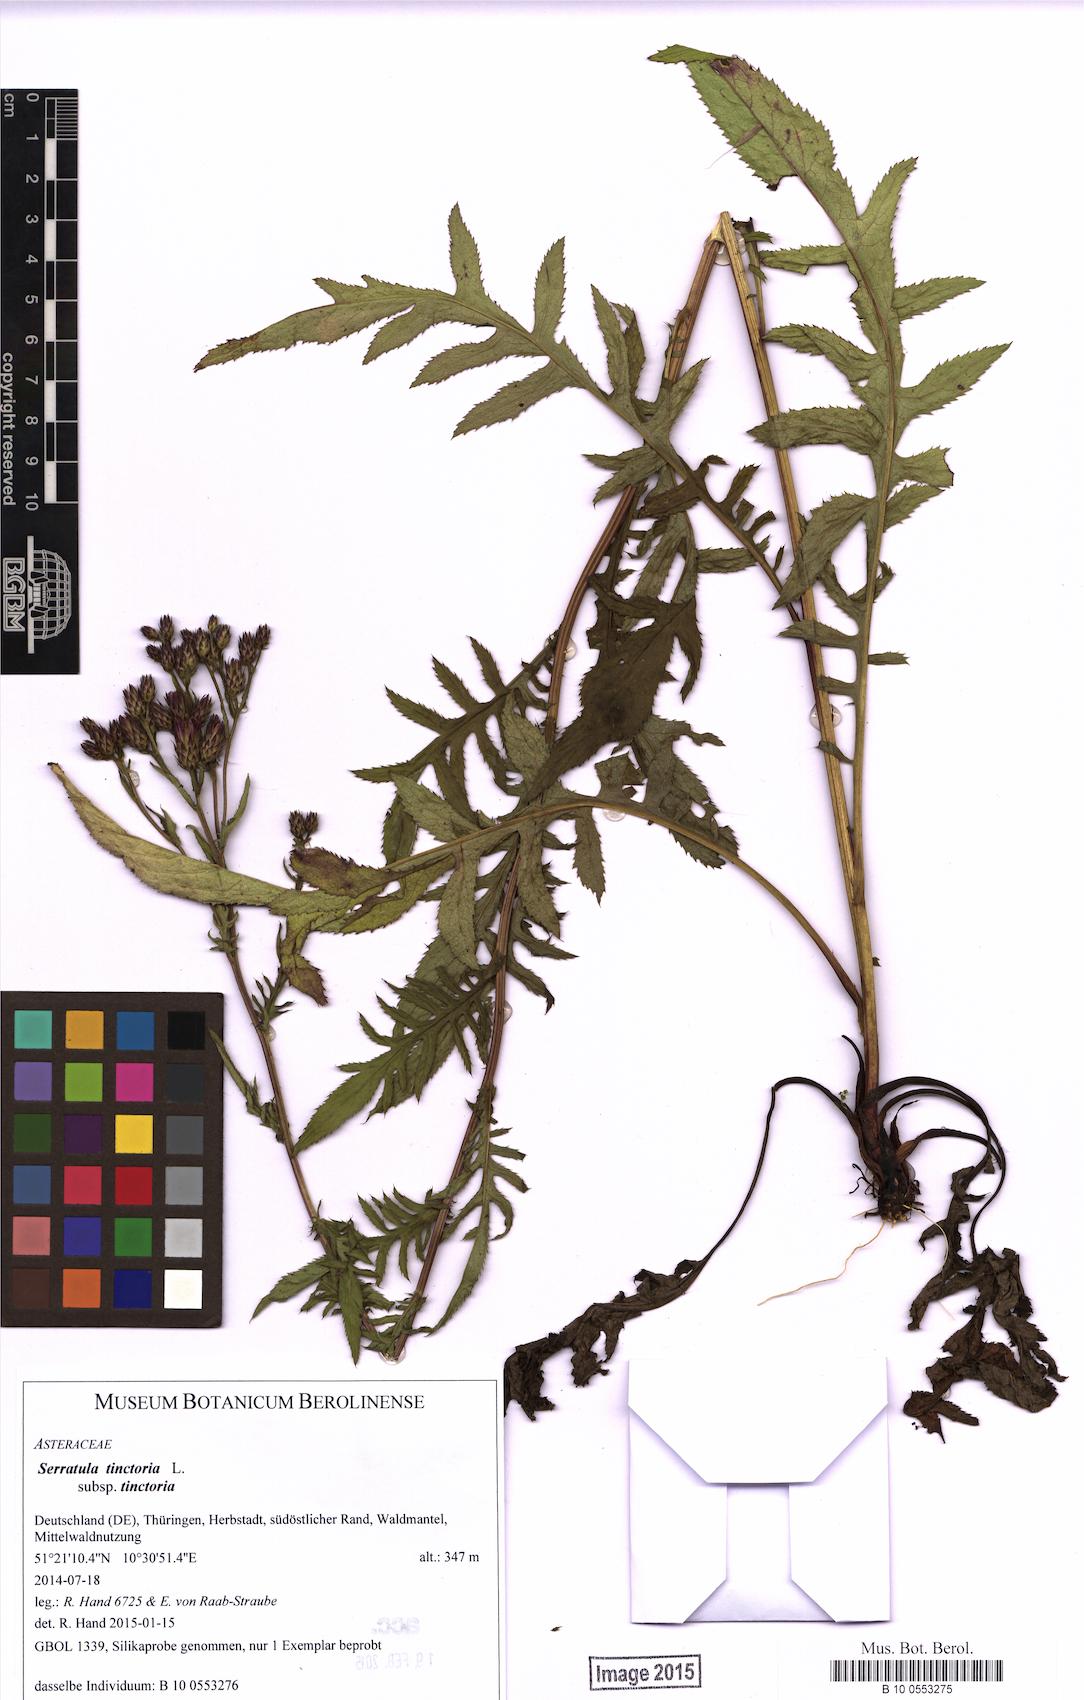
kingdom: Plantae
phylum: Tracheophyta
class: Magnoliopsida
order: Asterales
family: Asteraceae
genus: Serratula
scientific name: Serratula tinctoria
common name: Saw-wort
